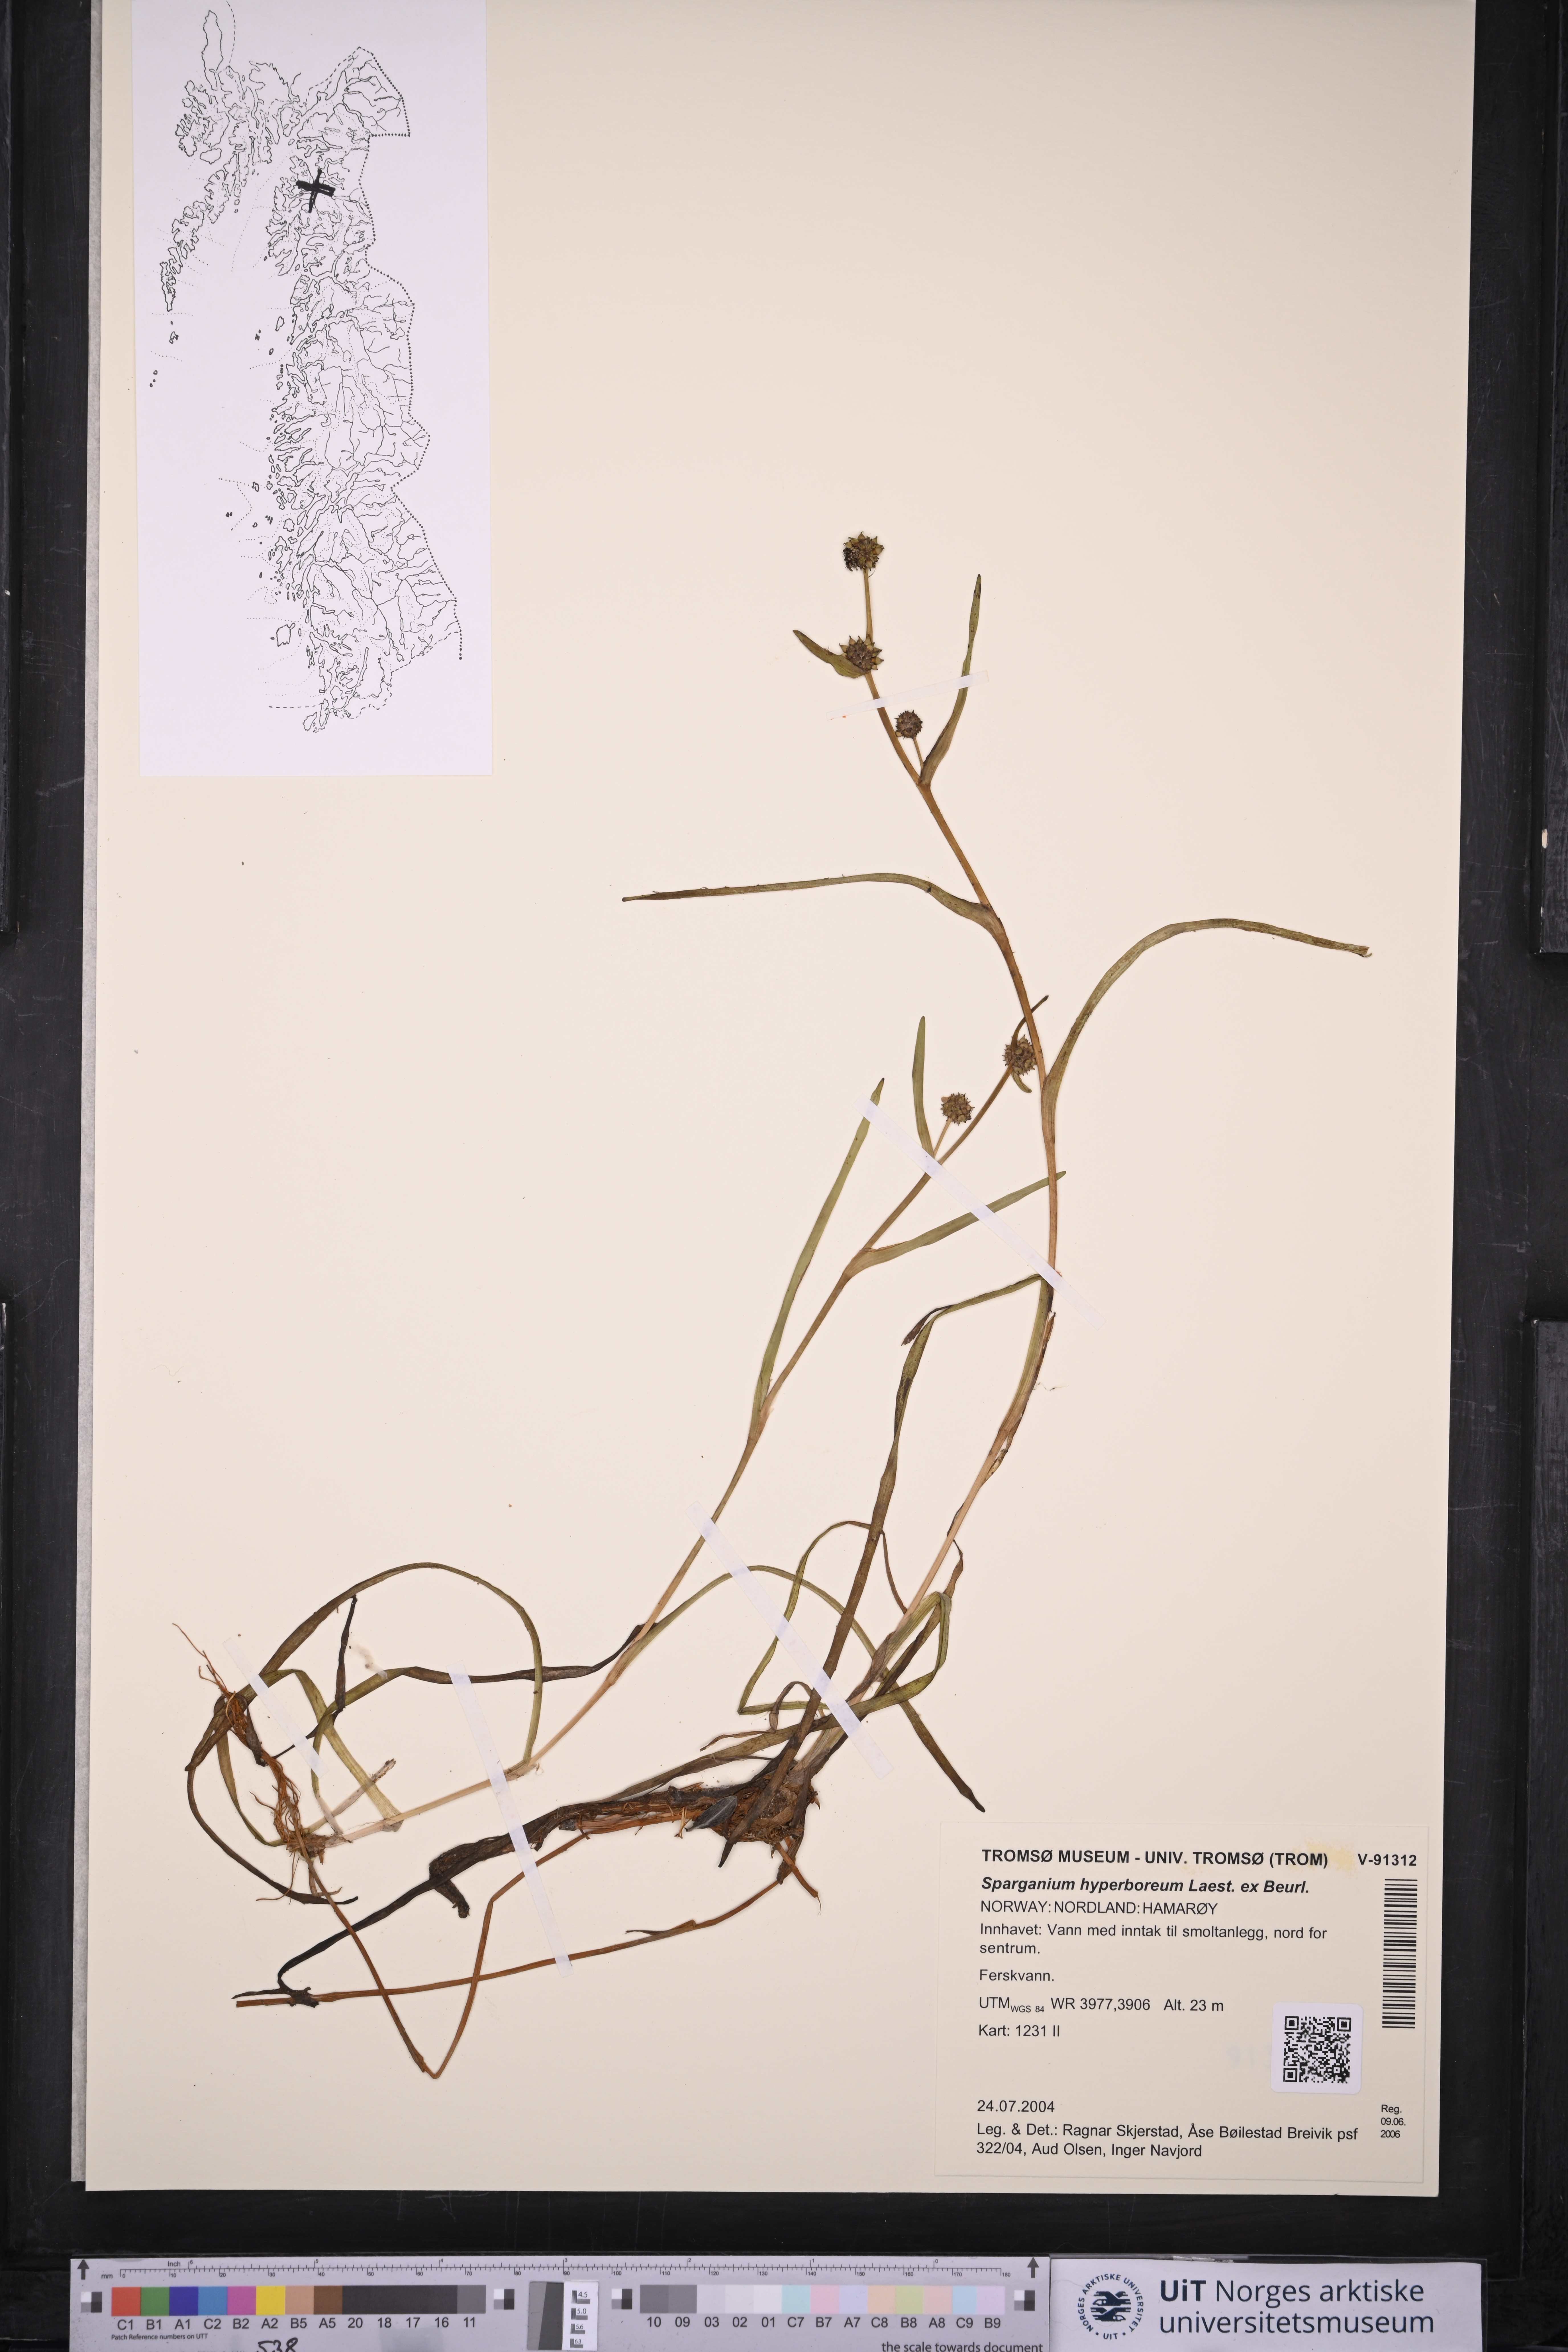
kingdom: Plantae
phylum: Tracheophyta
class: Liliopsida
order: Poales
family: Typhaceae
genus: Sparganium
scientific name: Sparganium hyperboreum
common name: Arctic burreed
